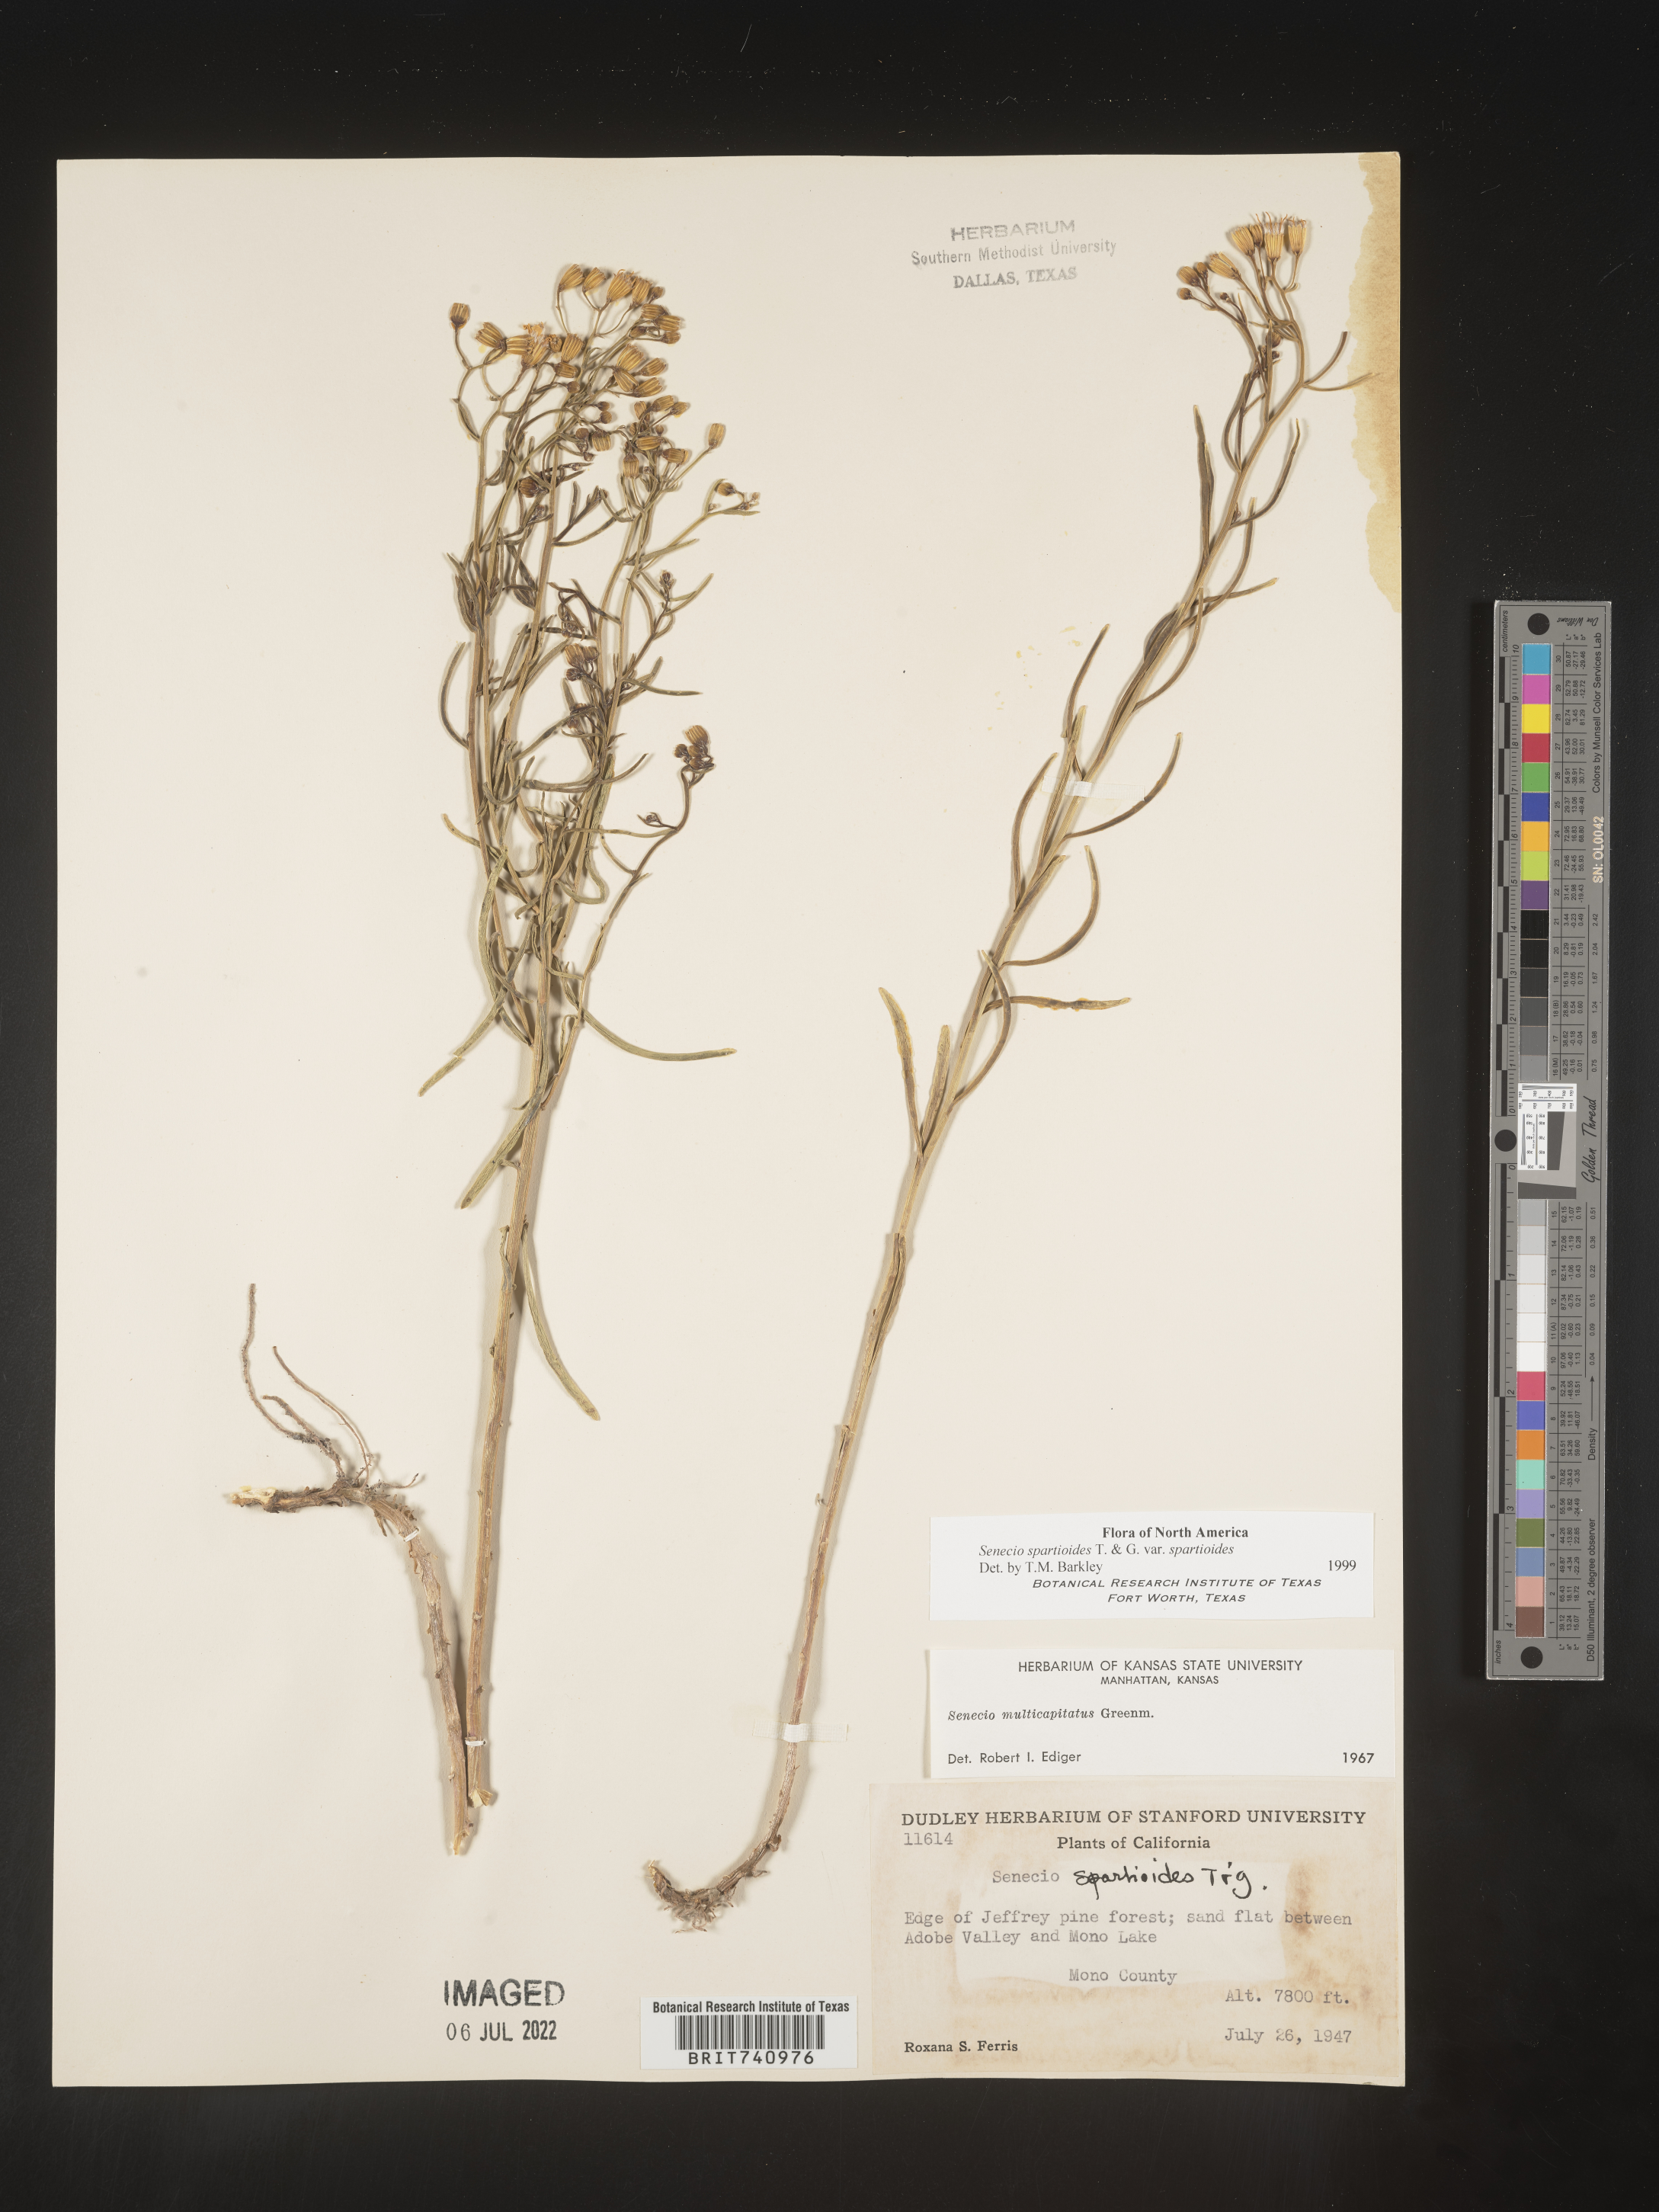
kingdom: Plantae
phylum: Tracheophyta
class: Magnoliopsida
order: Asterales
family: Asteraceae
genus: Senecio
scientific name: Senecio spartioides
